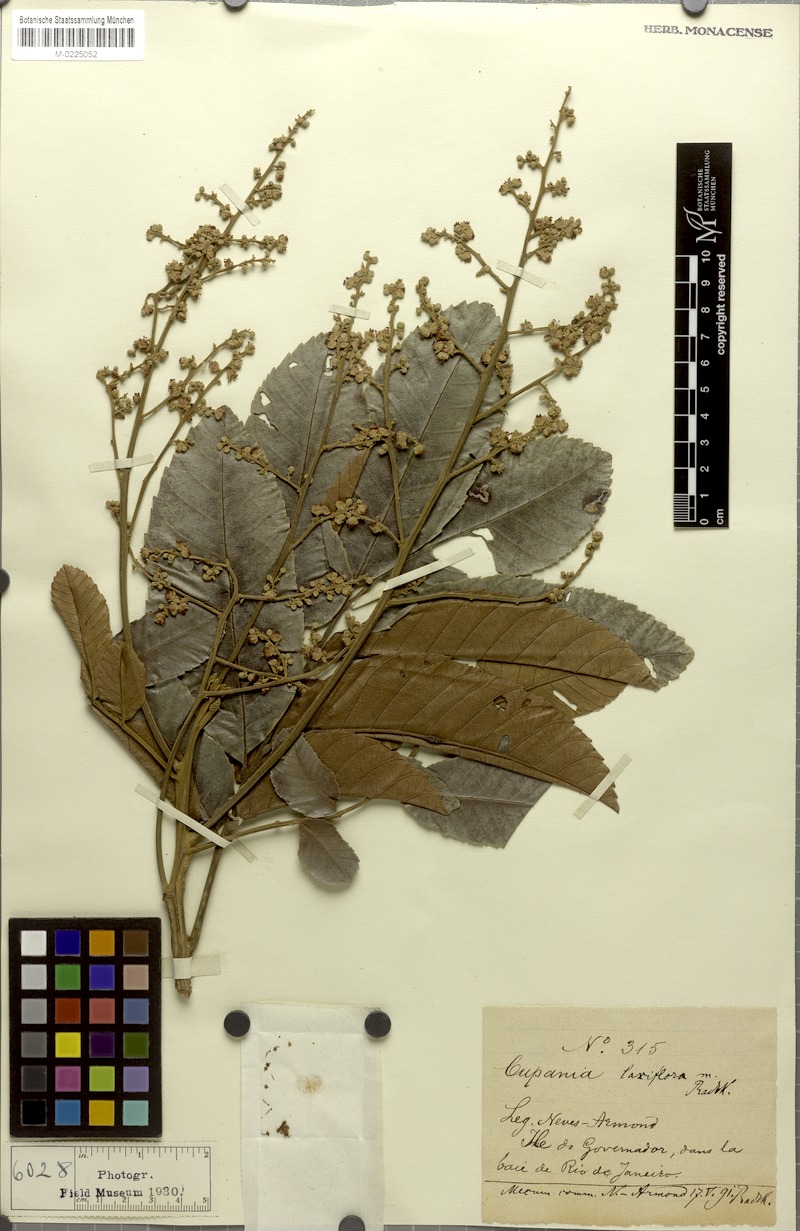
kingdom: Plantae
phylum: Tracheophyta
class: Magnoliopsida
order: Sapindales
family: Sapindaceae
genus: Cupania
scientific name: Cupania fluminensis
